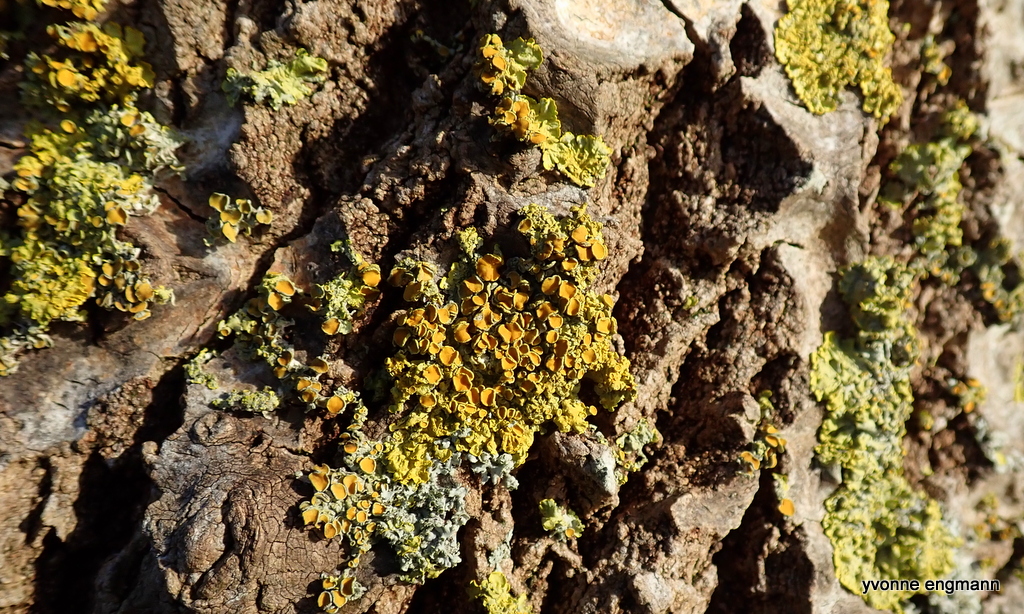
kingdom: Fungi
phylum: Ascomycota
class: Lecanoromycetes
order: Teloschistales
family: Teloschistaceae
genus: Xanthoria
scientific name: Xanthoria parietina
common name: almindelig væggelav
